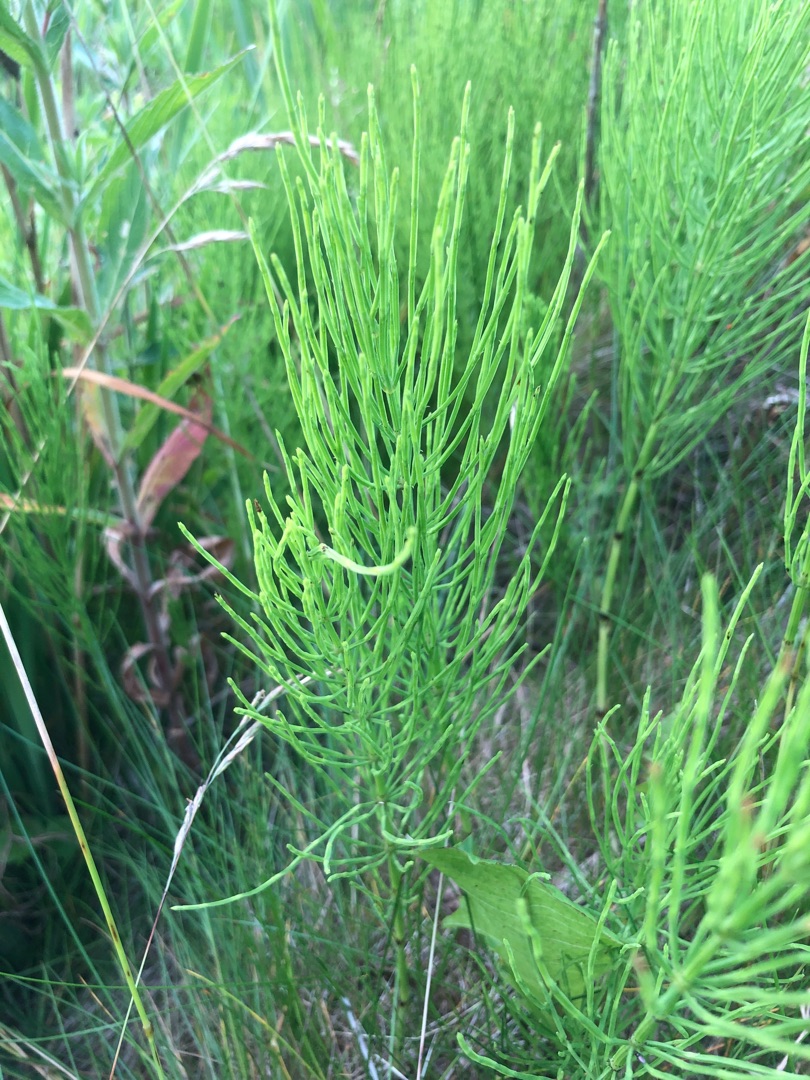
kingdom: Plantae
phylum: Tracheophyta
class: Polypodiopsida
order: Equisetales
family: Equisetaceae
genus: Equisetum
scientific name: Equisetum arvense
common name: Ager-padderok
